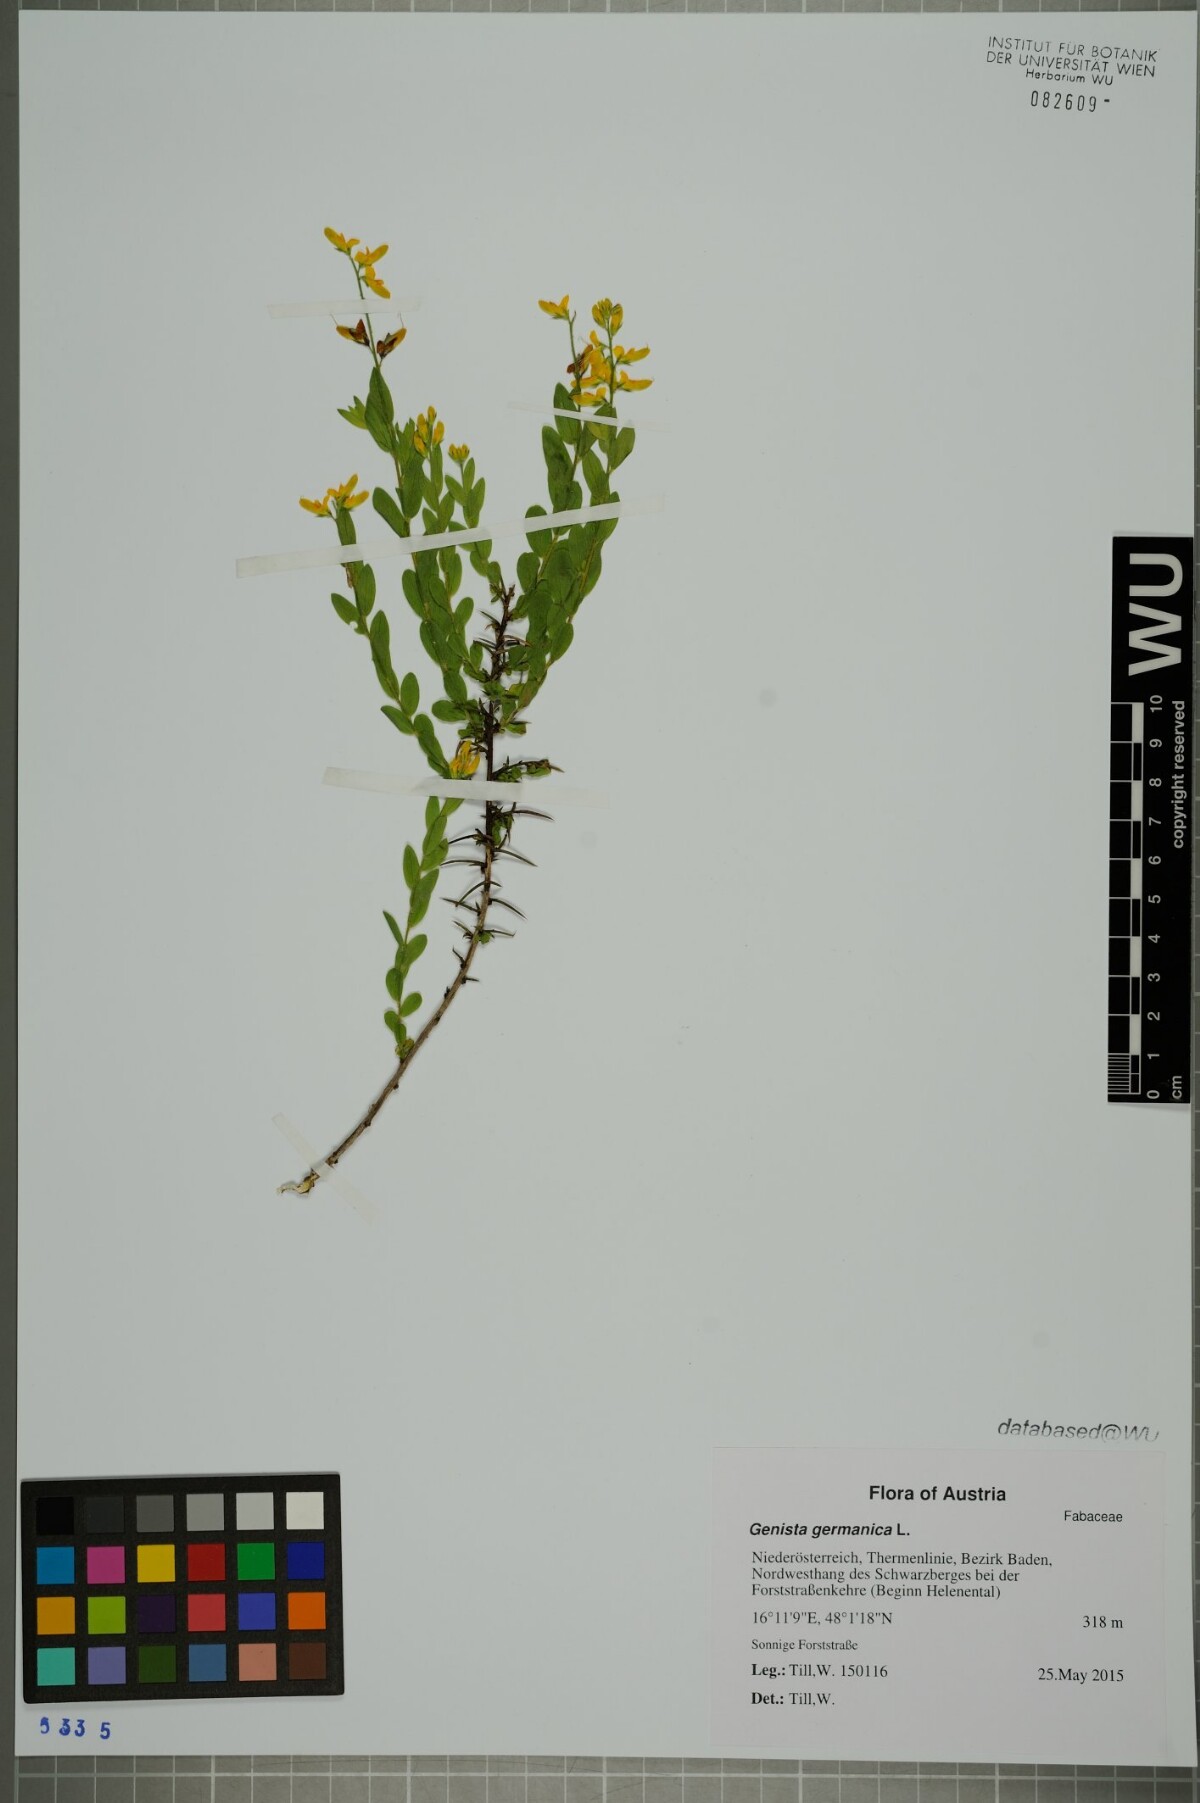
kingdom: Plantae
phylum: Tracheophyta
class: Magnoliopsida
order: Fabales
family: Fabaceae
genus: Genista
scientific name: Genista germanica
